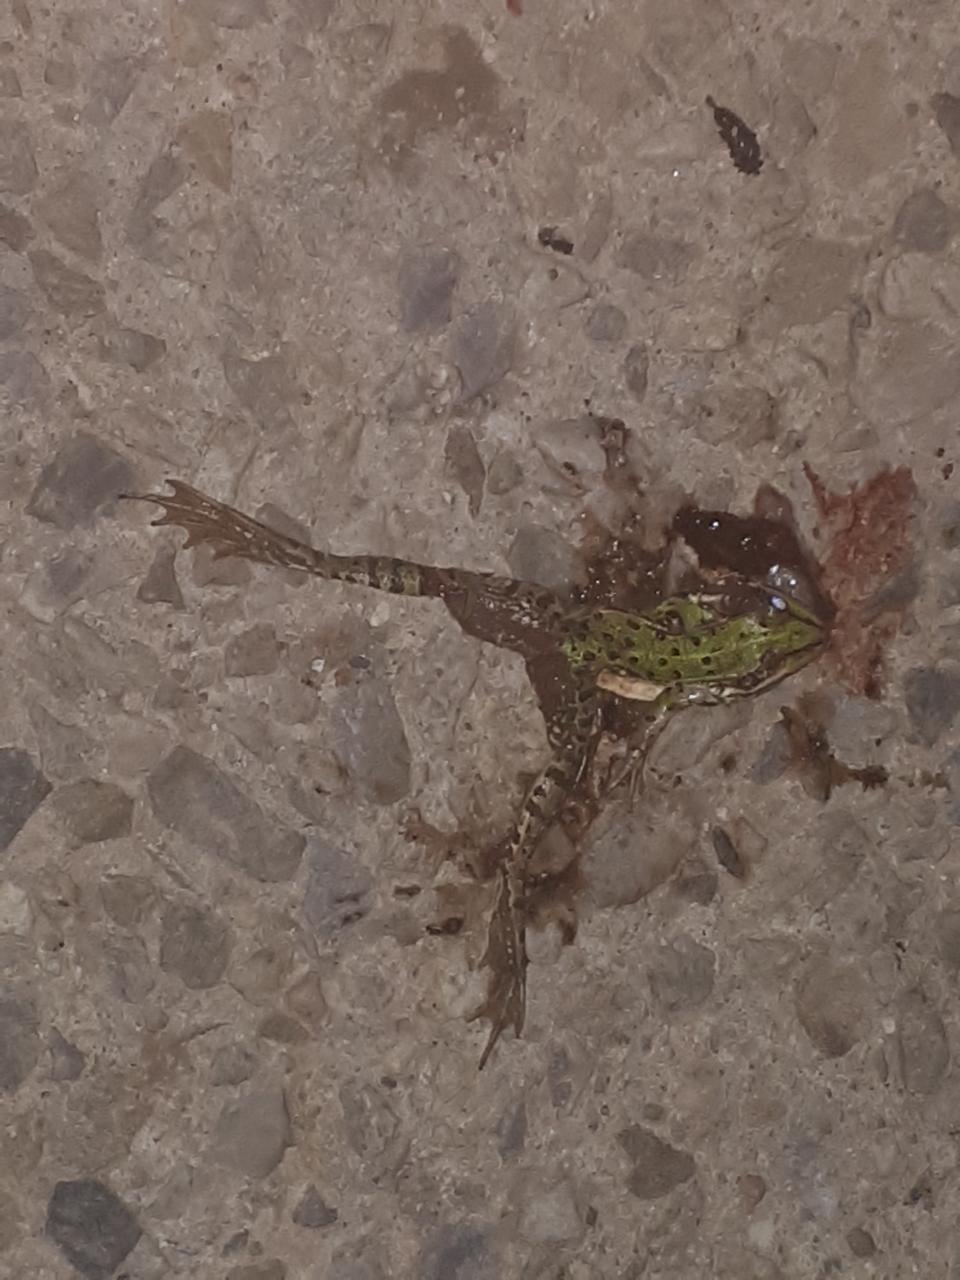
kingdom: Animalia
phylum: Chordata
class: Amphibia
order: Anura
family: Ranidae
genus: Pelophylax
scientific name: Pelophylax
